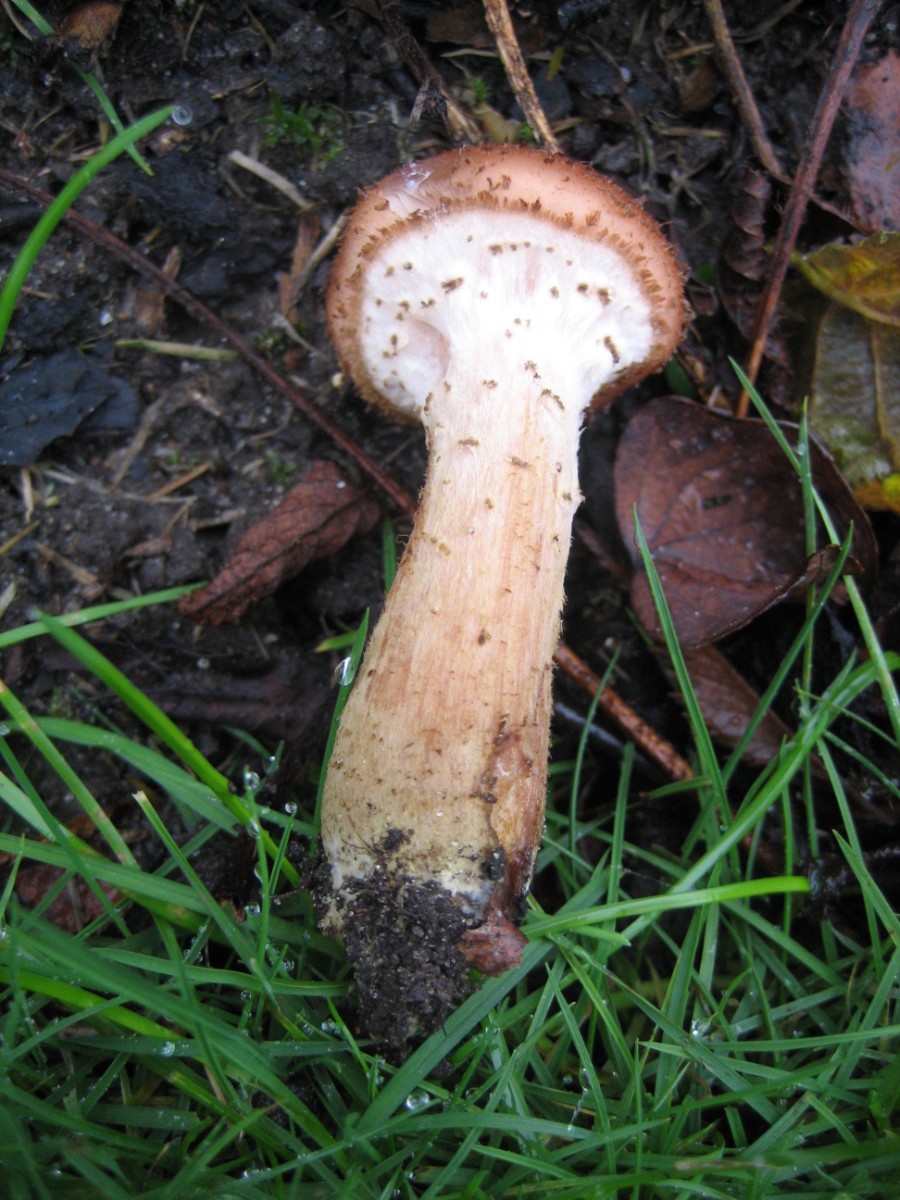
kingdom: Fungi
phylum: Basidiomycota
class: Agaricomycetes
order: Agaricales
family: Physalacriaceae
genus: Armillaria
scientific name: Armillaria lutea
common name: køllestokket honningsvamp
